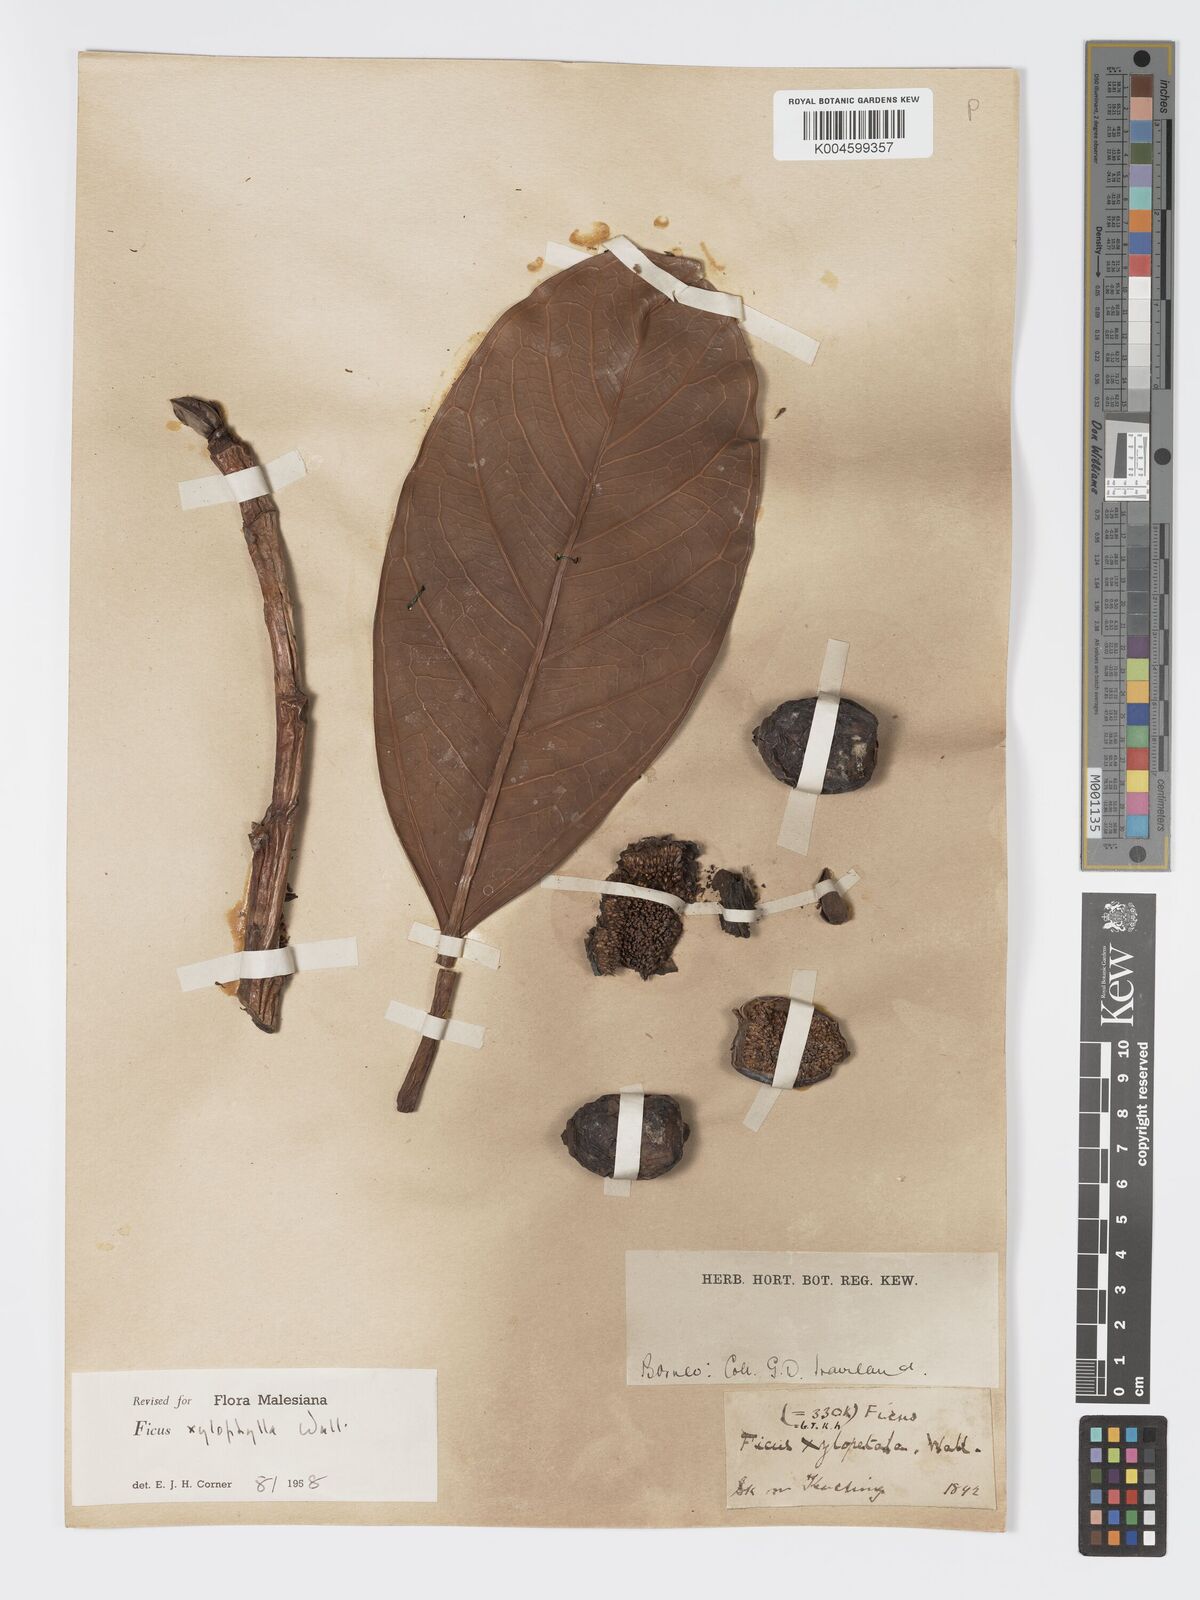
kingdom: Plantae
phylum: Tracheophyta
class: Magnoliopsida
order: Rosales
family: Moraceae
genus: Ficus
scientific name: Ficus xylophylla
